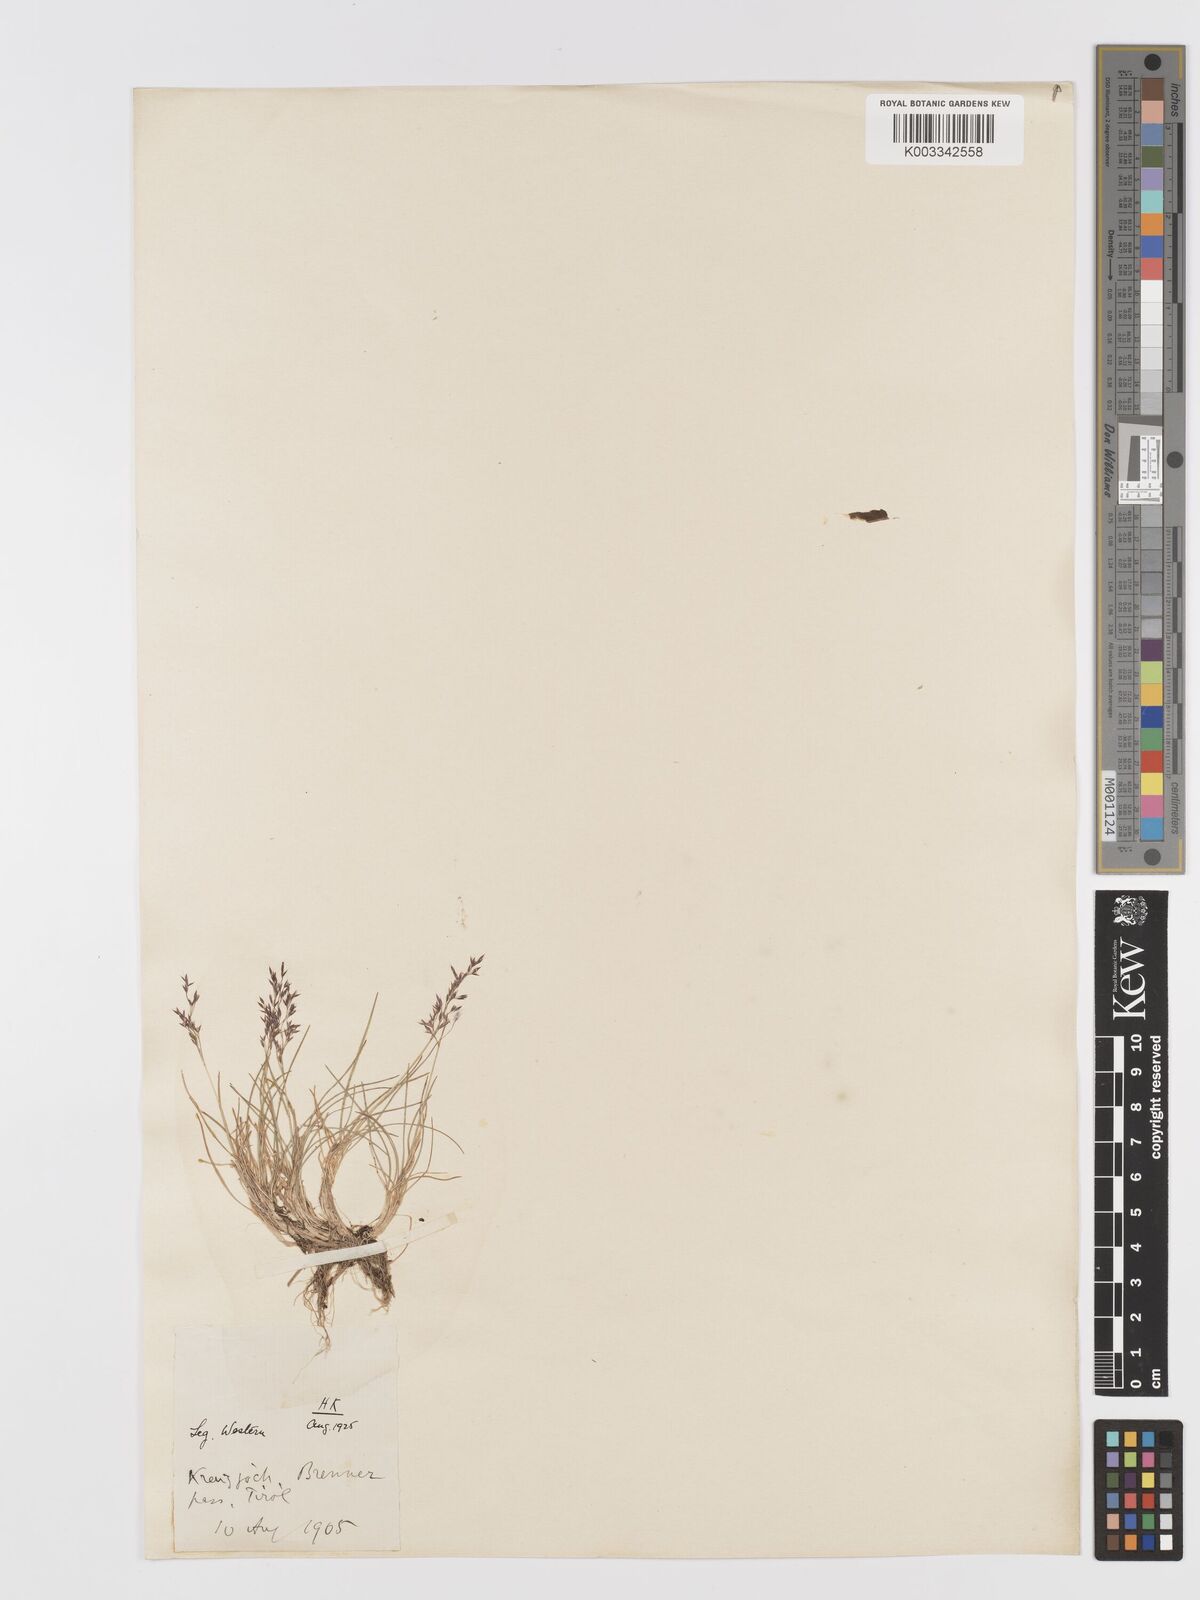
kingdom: Plantae
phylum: Tracheophyta
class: Liliopsida
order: Poales
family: Poaceae
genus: Agrostis
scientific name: Agrostis
